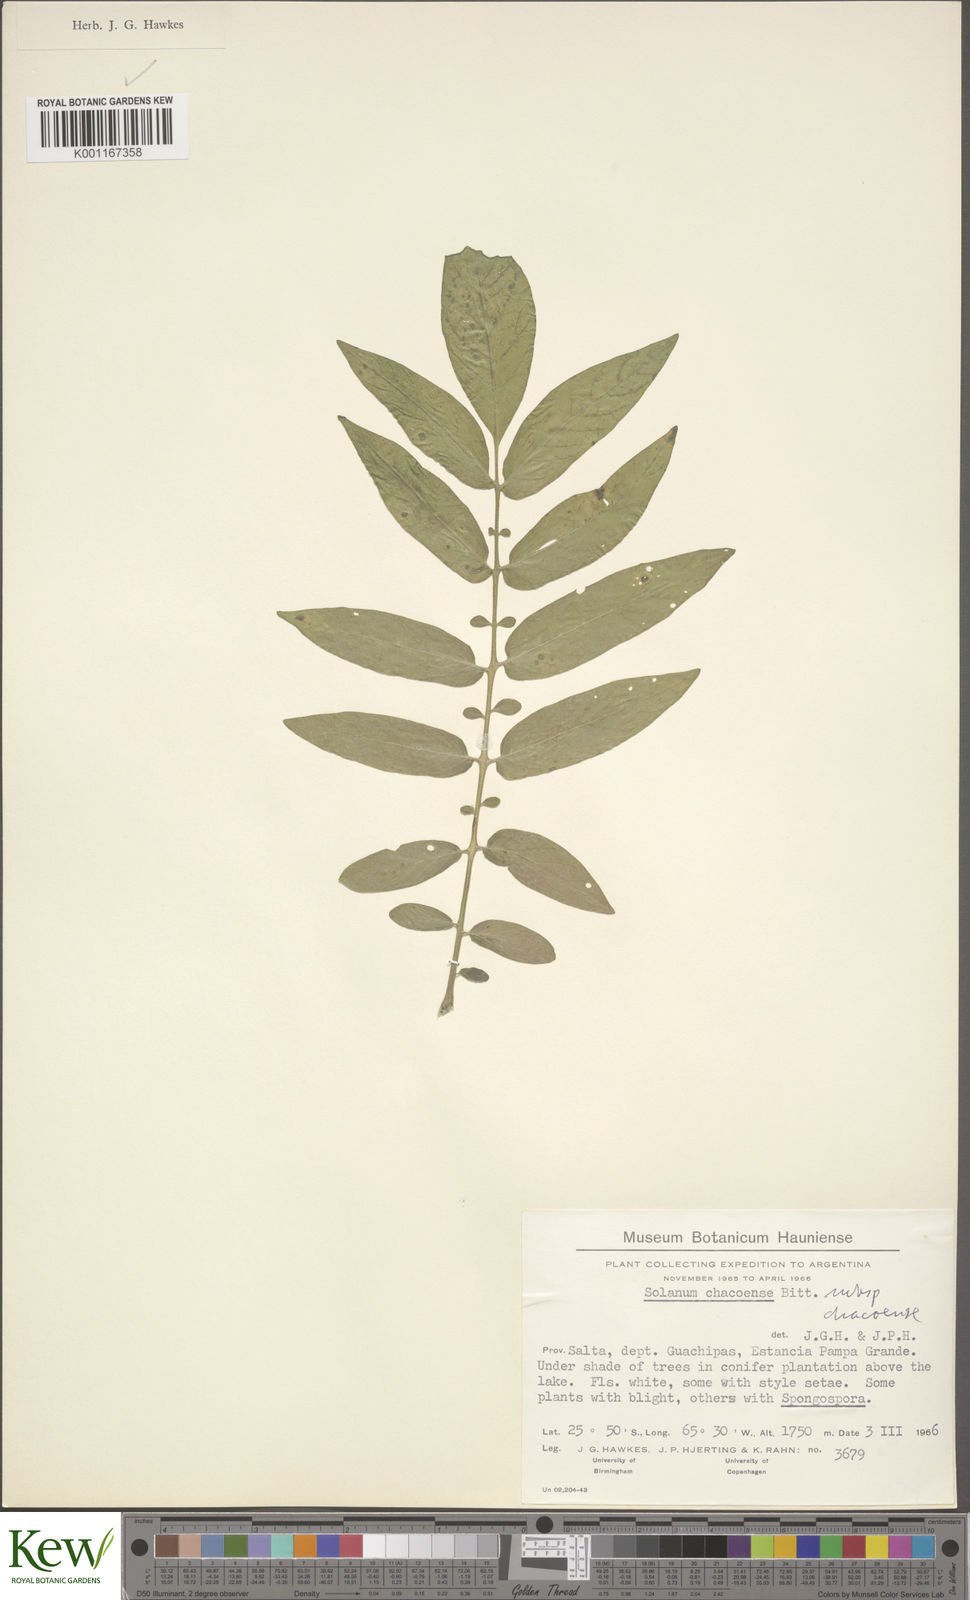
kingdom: Plantae
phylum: Tracheophyta
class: Magnoliopsida
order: Solanales
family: Solanaceae
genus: Solanum
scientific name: Solanum chacoense
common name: Chaco potato
